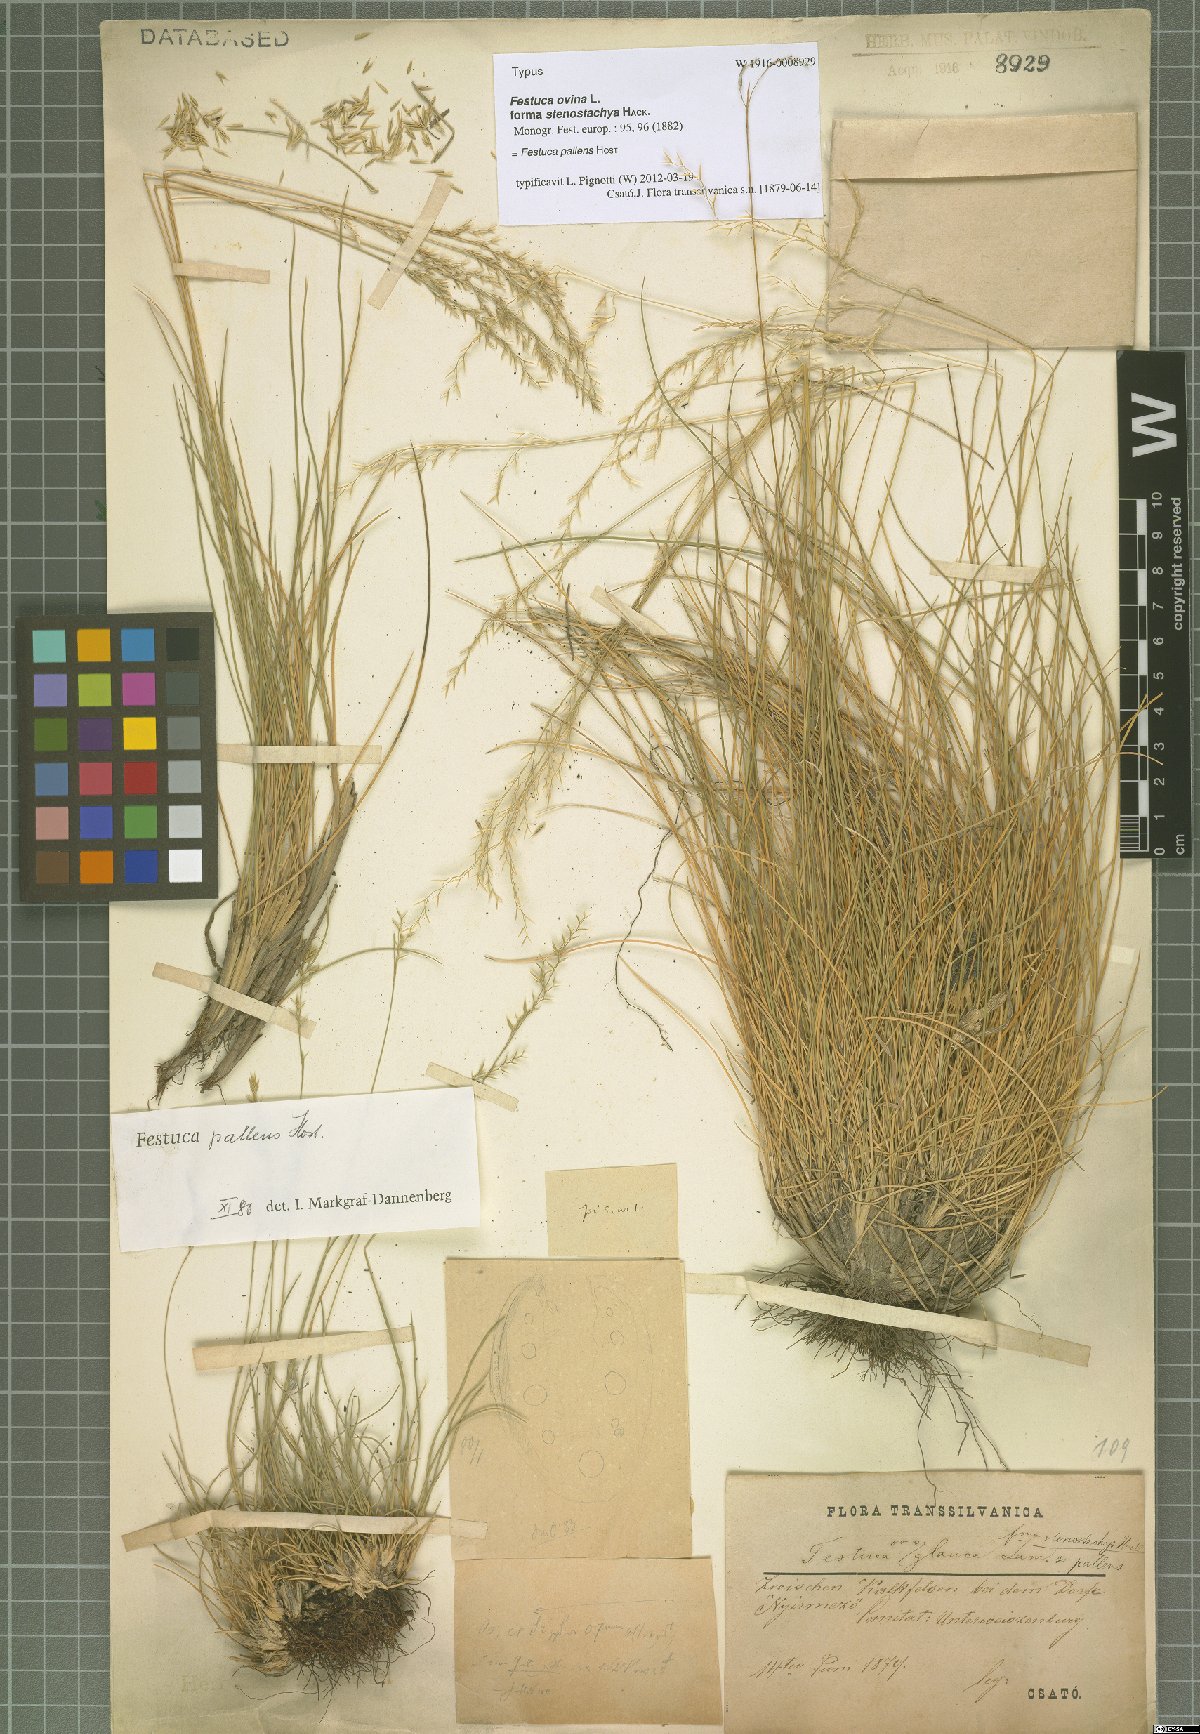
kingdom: Plantae
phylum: Tracheophyta
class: Liliopsida
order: Poales
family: Poaceae
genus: Festuca
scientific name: Festuca pallens
